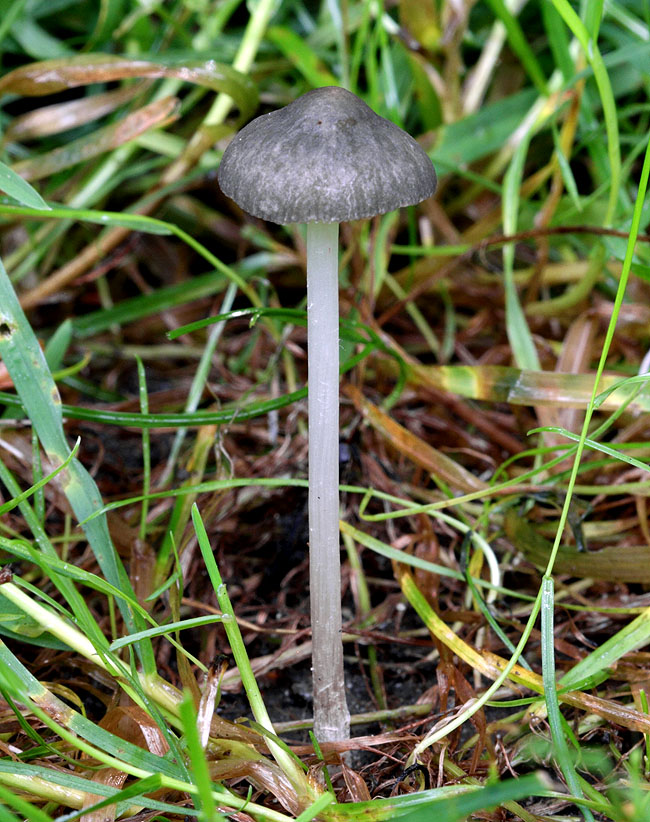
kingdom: Fungi
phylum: Basidiomycota
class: Agaricomycetes
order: Agaricales
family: Pluteaceae
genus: Pluteus
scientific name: Pluteus
